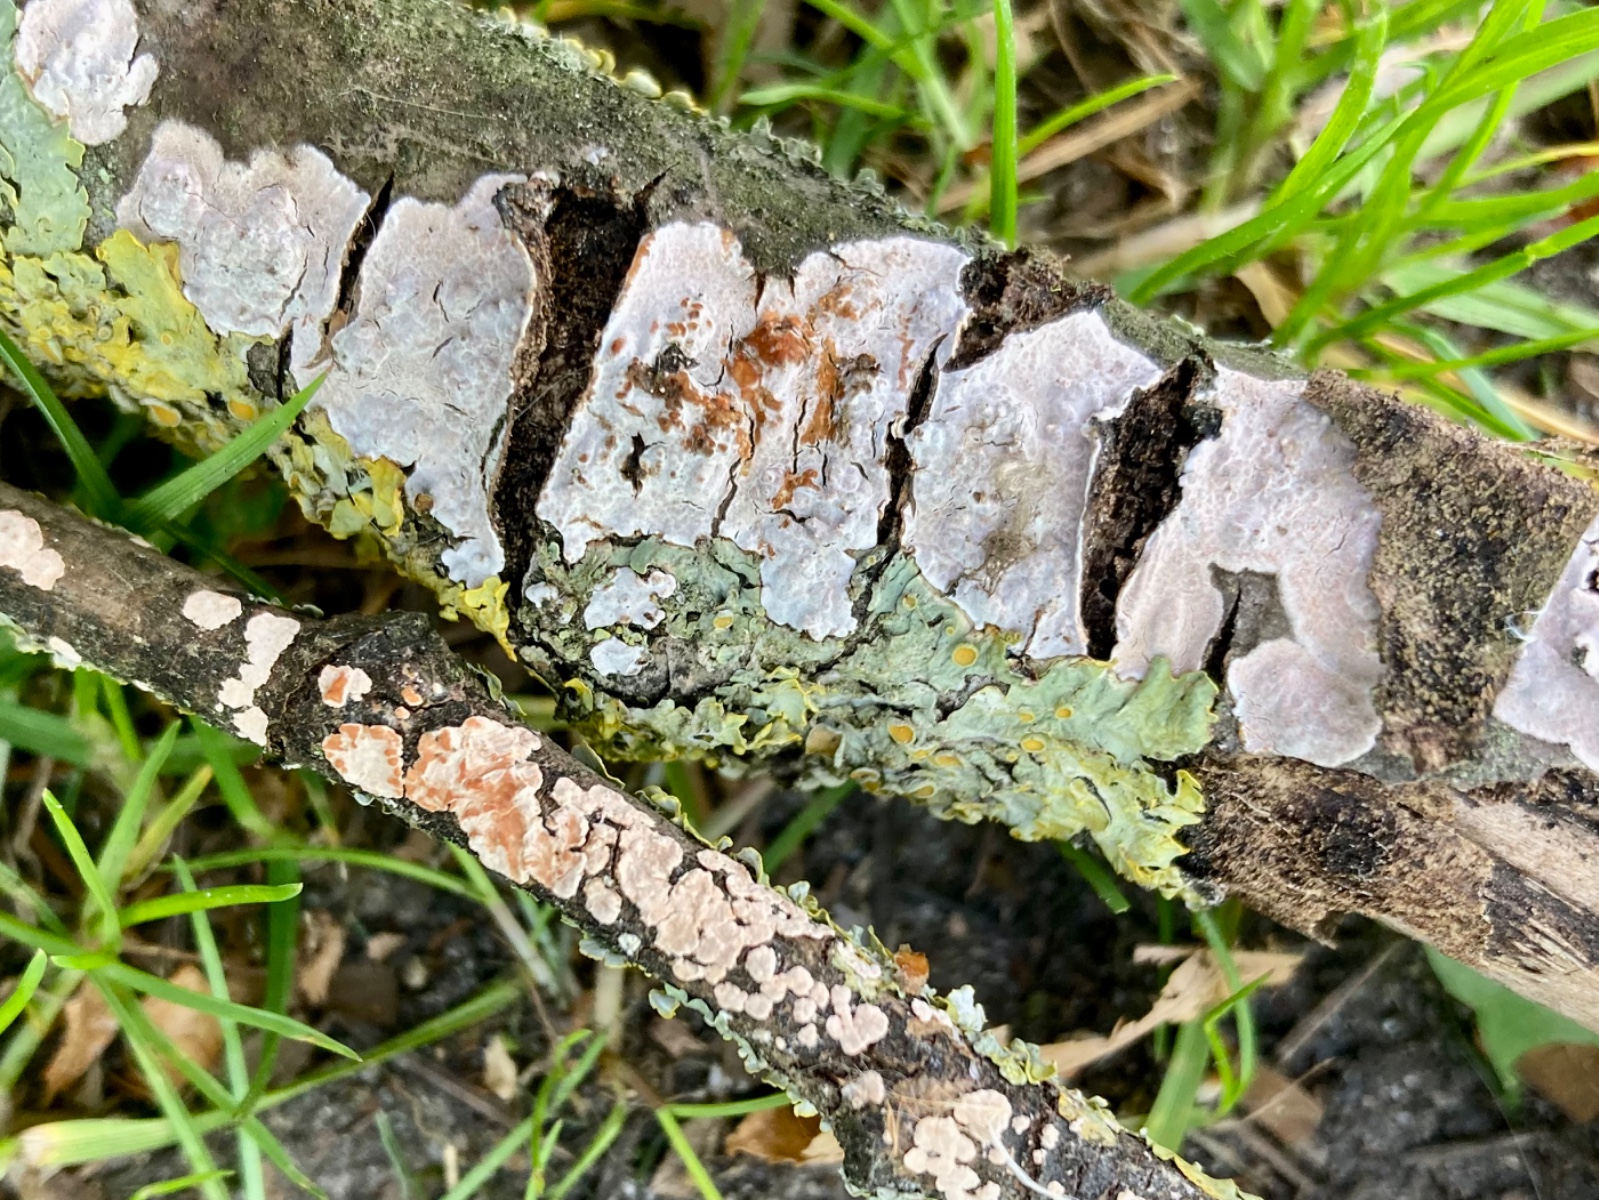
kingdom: Fungi
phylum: Basidiomycota
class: Agaricomycetes
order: Russulales
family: Peniophoraceae
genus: Peniophora
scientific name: Peniophora polygonia
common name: polygon-voksskind
